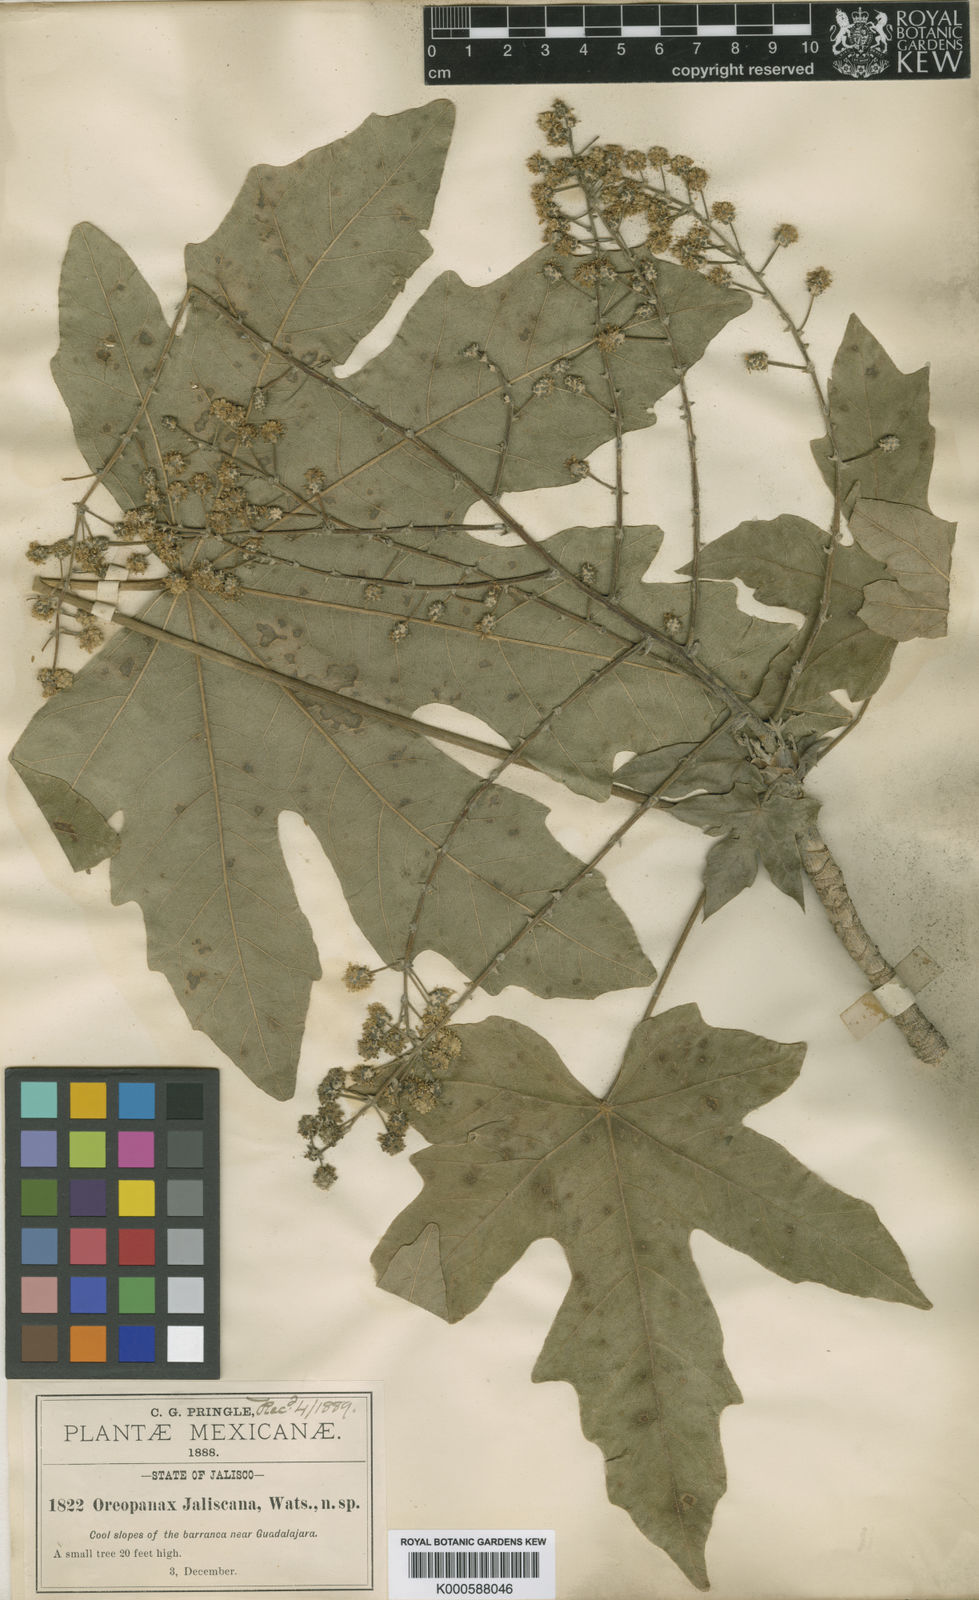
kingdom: Plantae
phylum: Tracheophyta
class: Magnoliopsida
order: Apiales
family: Araliaceae
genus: Oreopanax
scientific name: Oreopanax
